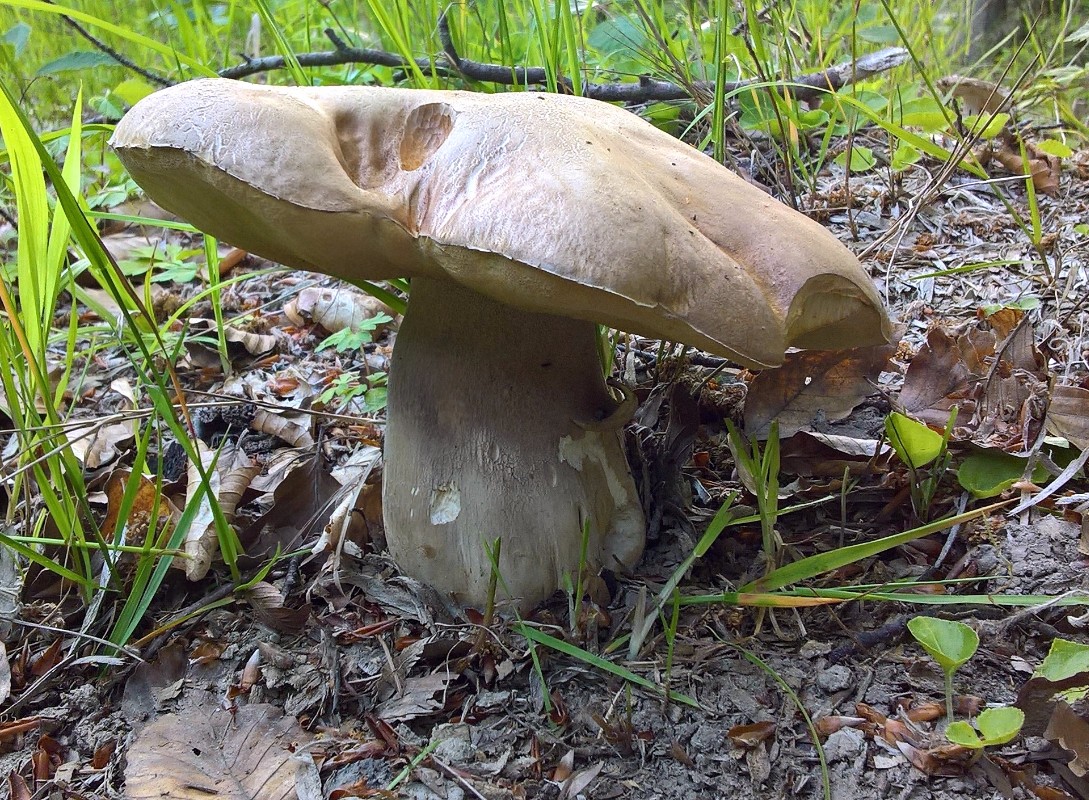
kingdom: Fungi
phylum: Basidiomycota
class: Agaricomycetes
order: Boletales
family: Boletaceae
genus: Boletus
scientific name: Boletus reticulatus
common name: sommer-rørhat
